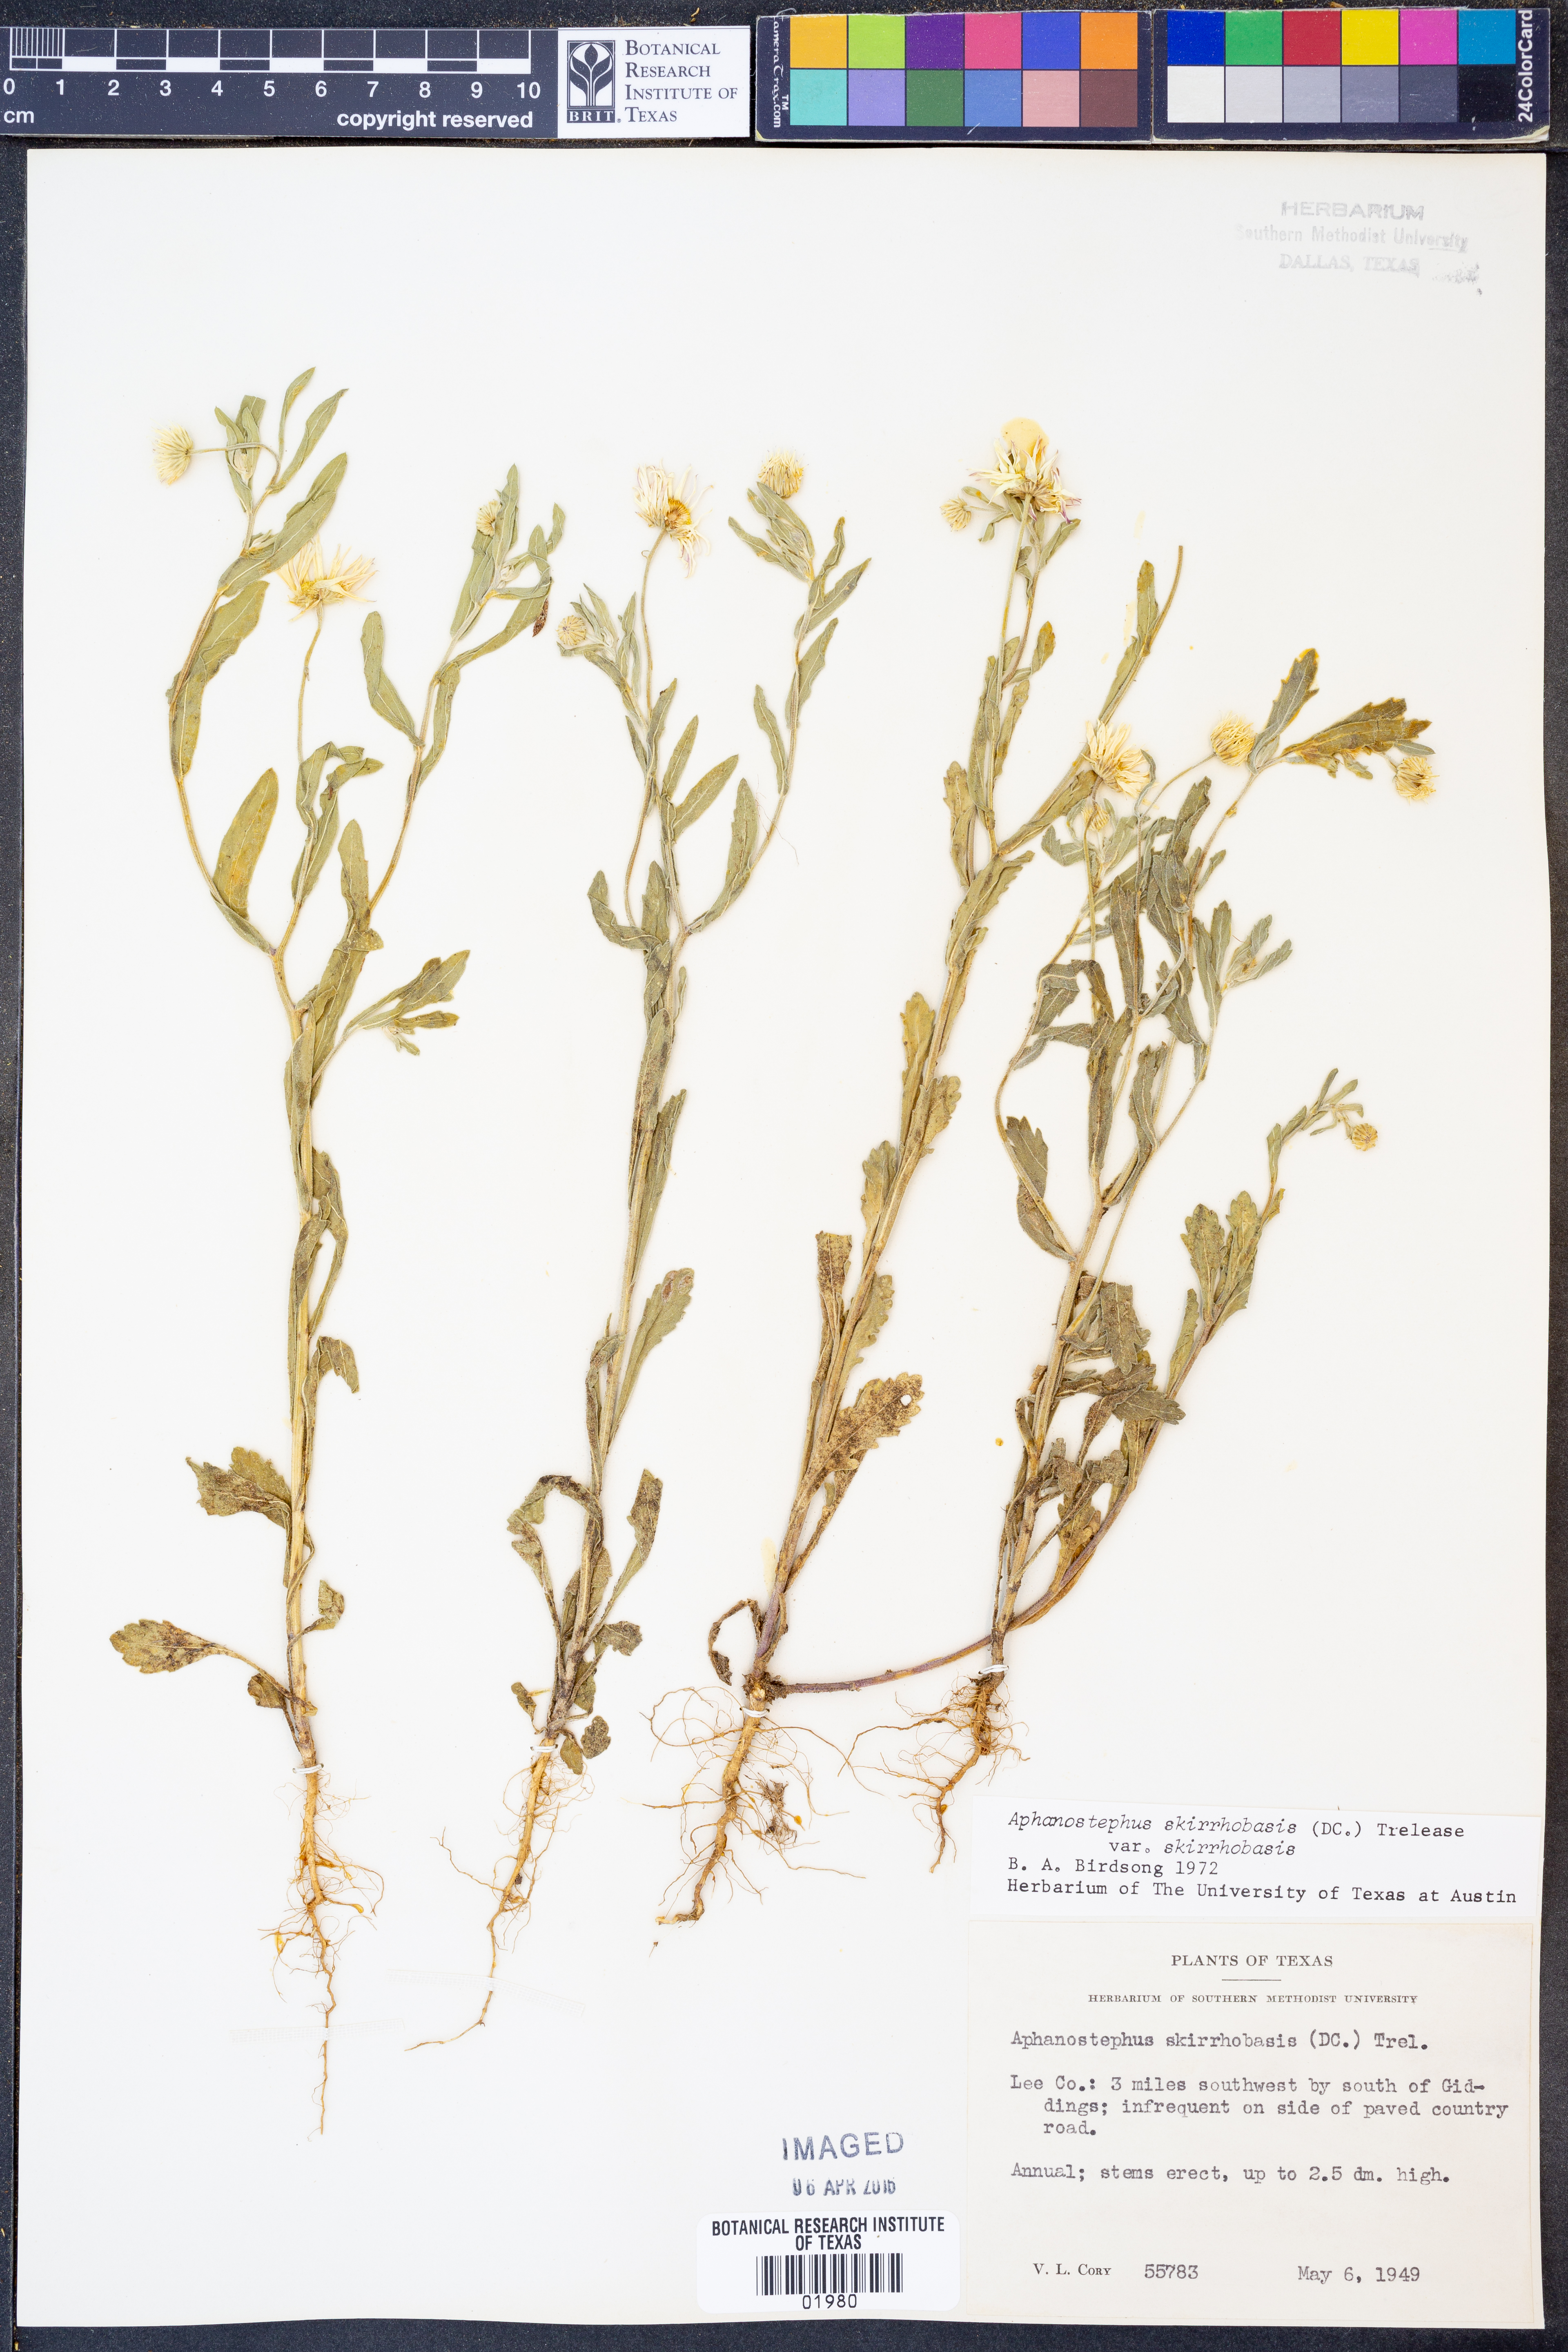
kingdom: Plantae
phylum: Tracheophyta
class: Magnoliopsida
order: Asterales
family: Asteraceae
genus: Aphanostephus
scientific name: Aphanostephus skirrhobasis
